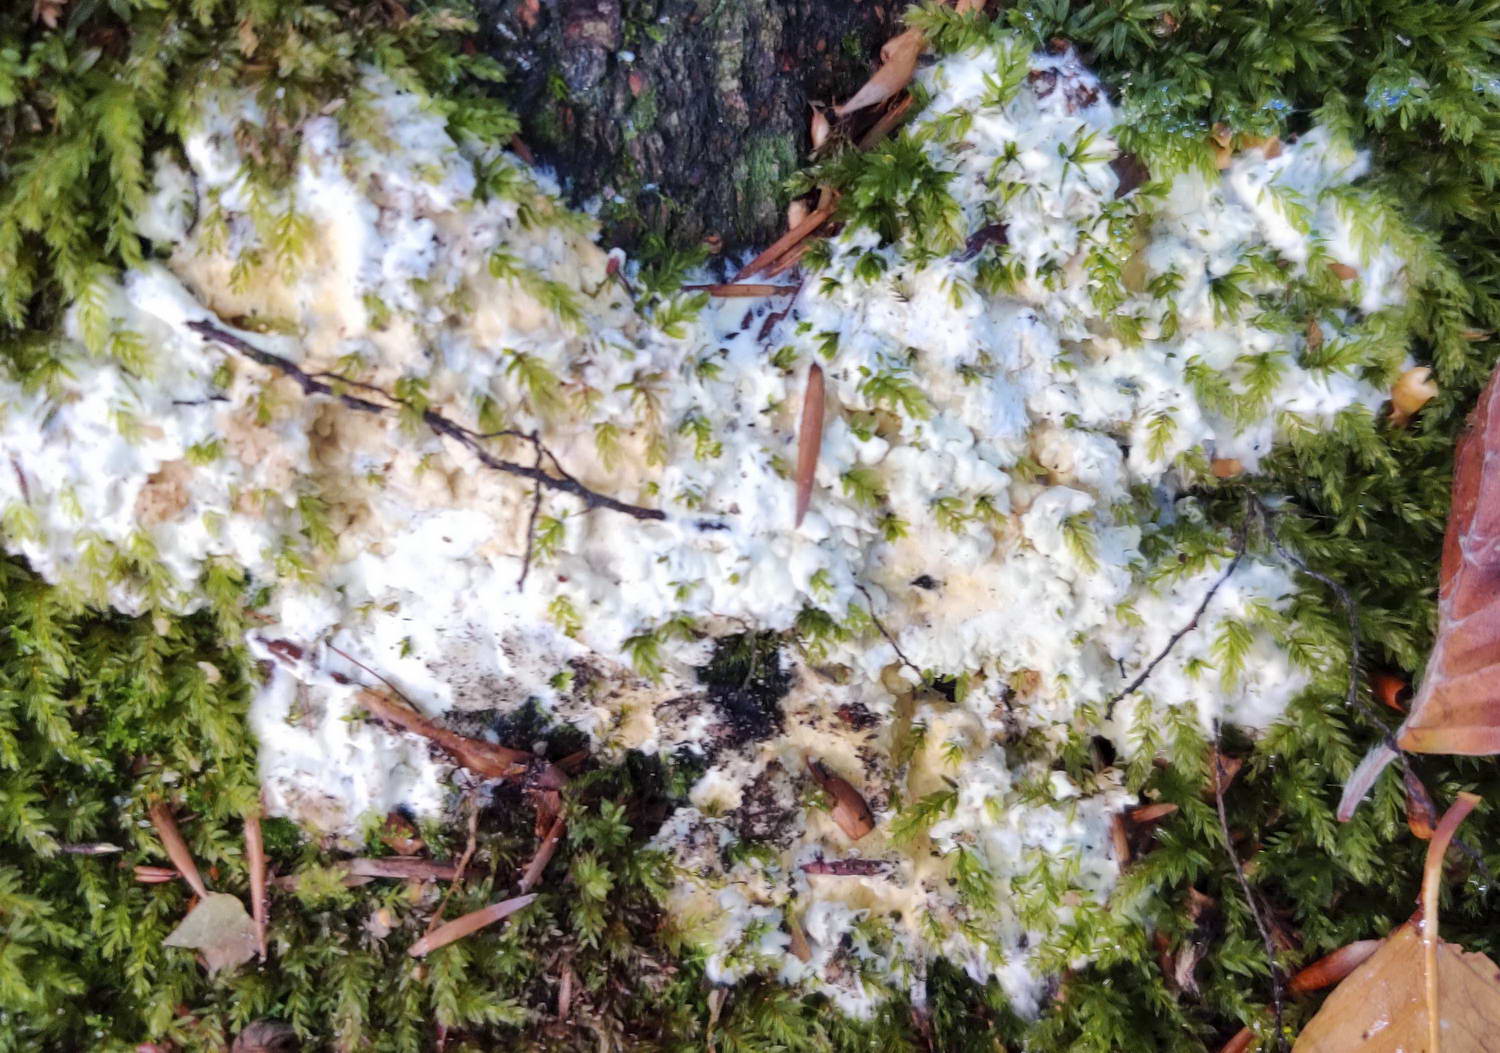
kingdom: Fungi
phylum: Ascomycota
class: Sordariomycetes
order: Hypocreales
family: Hypocreaceae
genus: Trichoderma
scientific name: Trichoderma citrinum
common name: udbredt kødkerne
